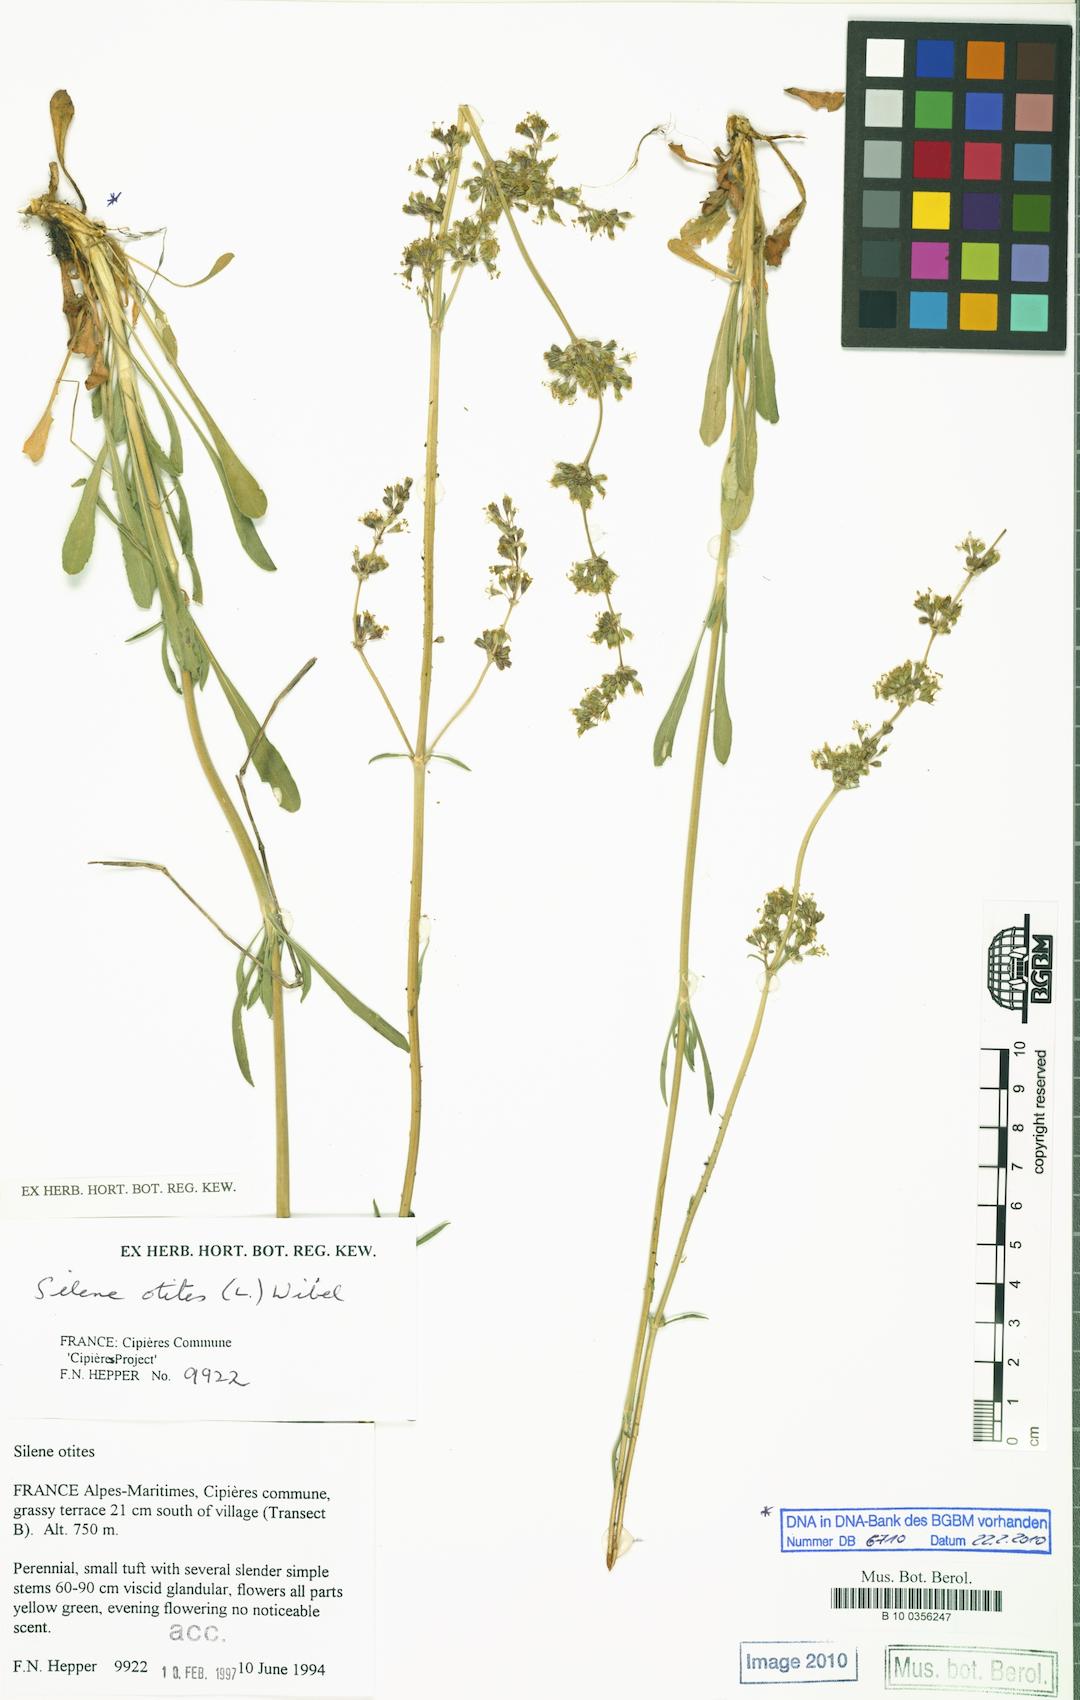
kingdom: Plantae
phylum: Tracheophyta
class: Magnoliopsida
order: Caryophyllales
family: Caryophyllaceae
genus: Silene
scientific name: Silene otites
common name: Spanish catchfly
